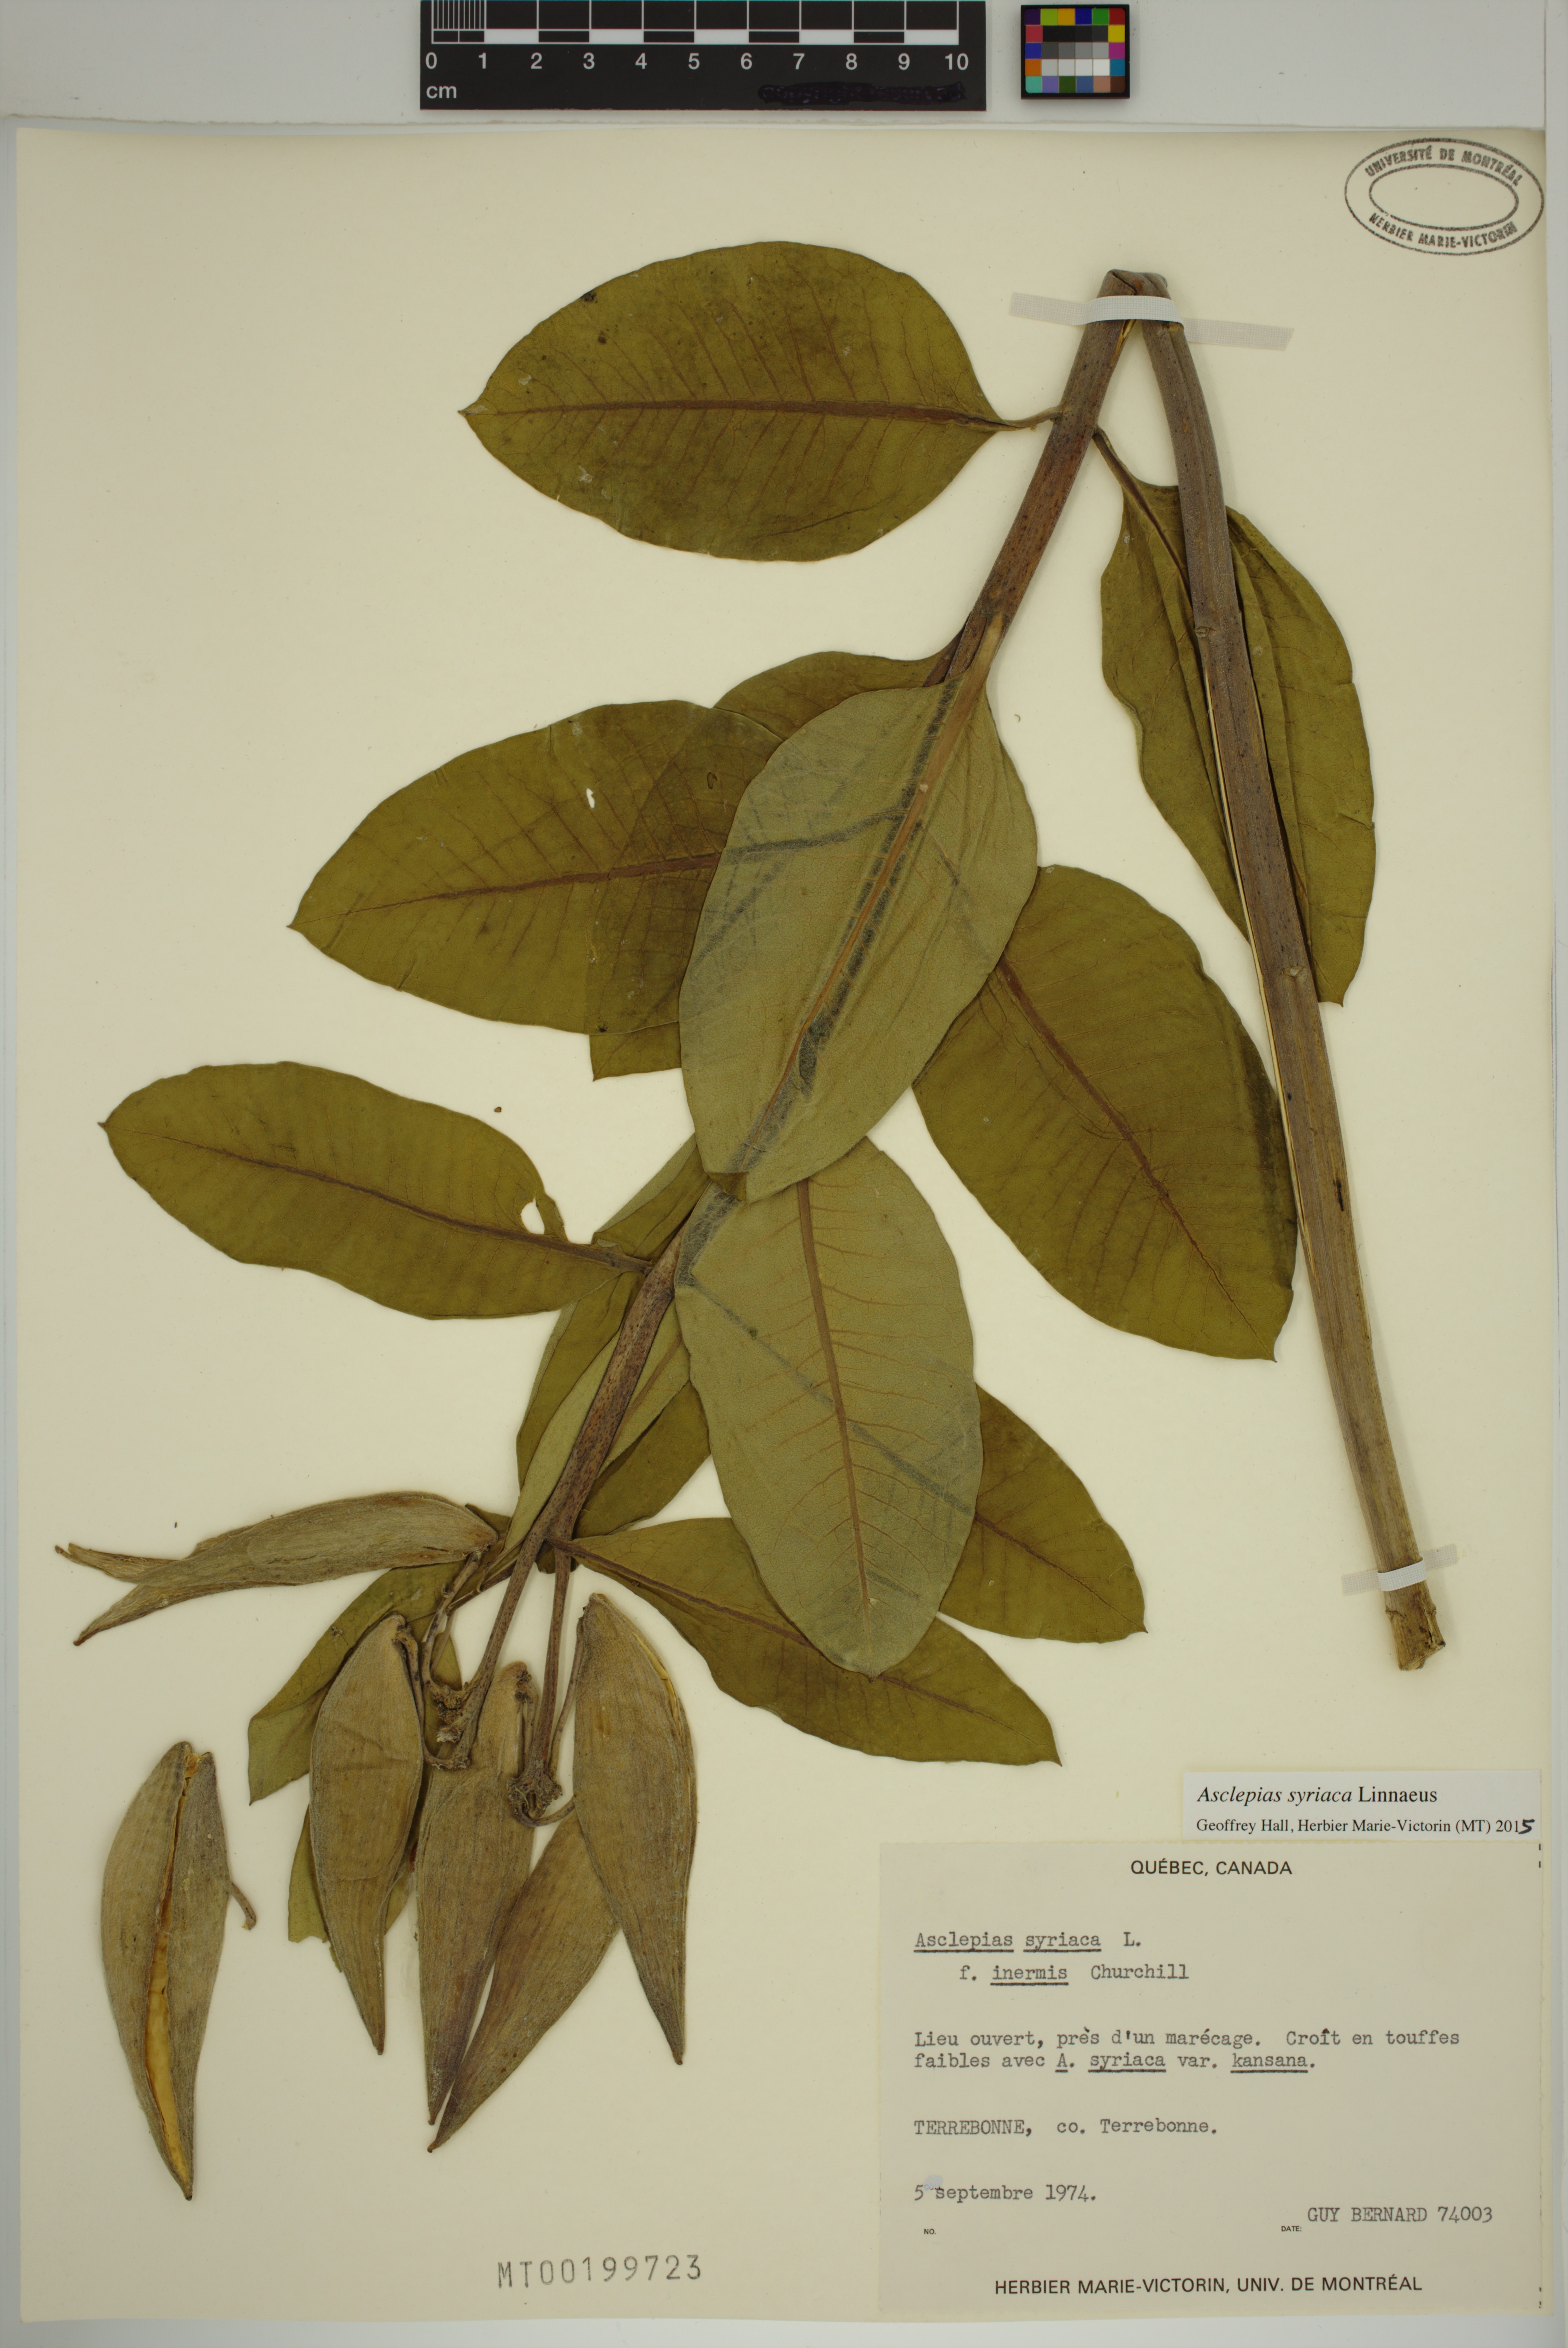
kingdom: Plantae
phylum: Tracheophyta
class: Magnoliopsida
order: Gentianales
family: Apocynaceae
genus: Asclepias
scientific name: Asclepias syriaca
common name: Common milkweed
